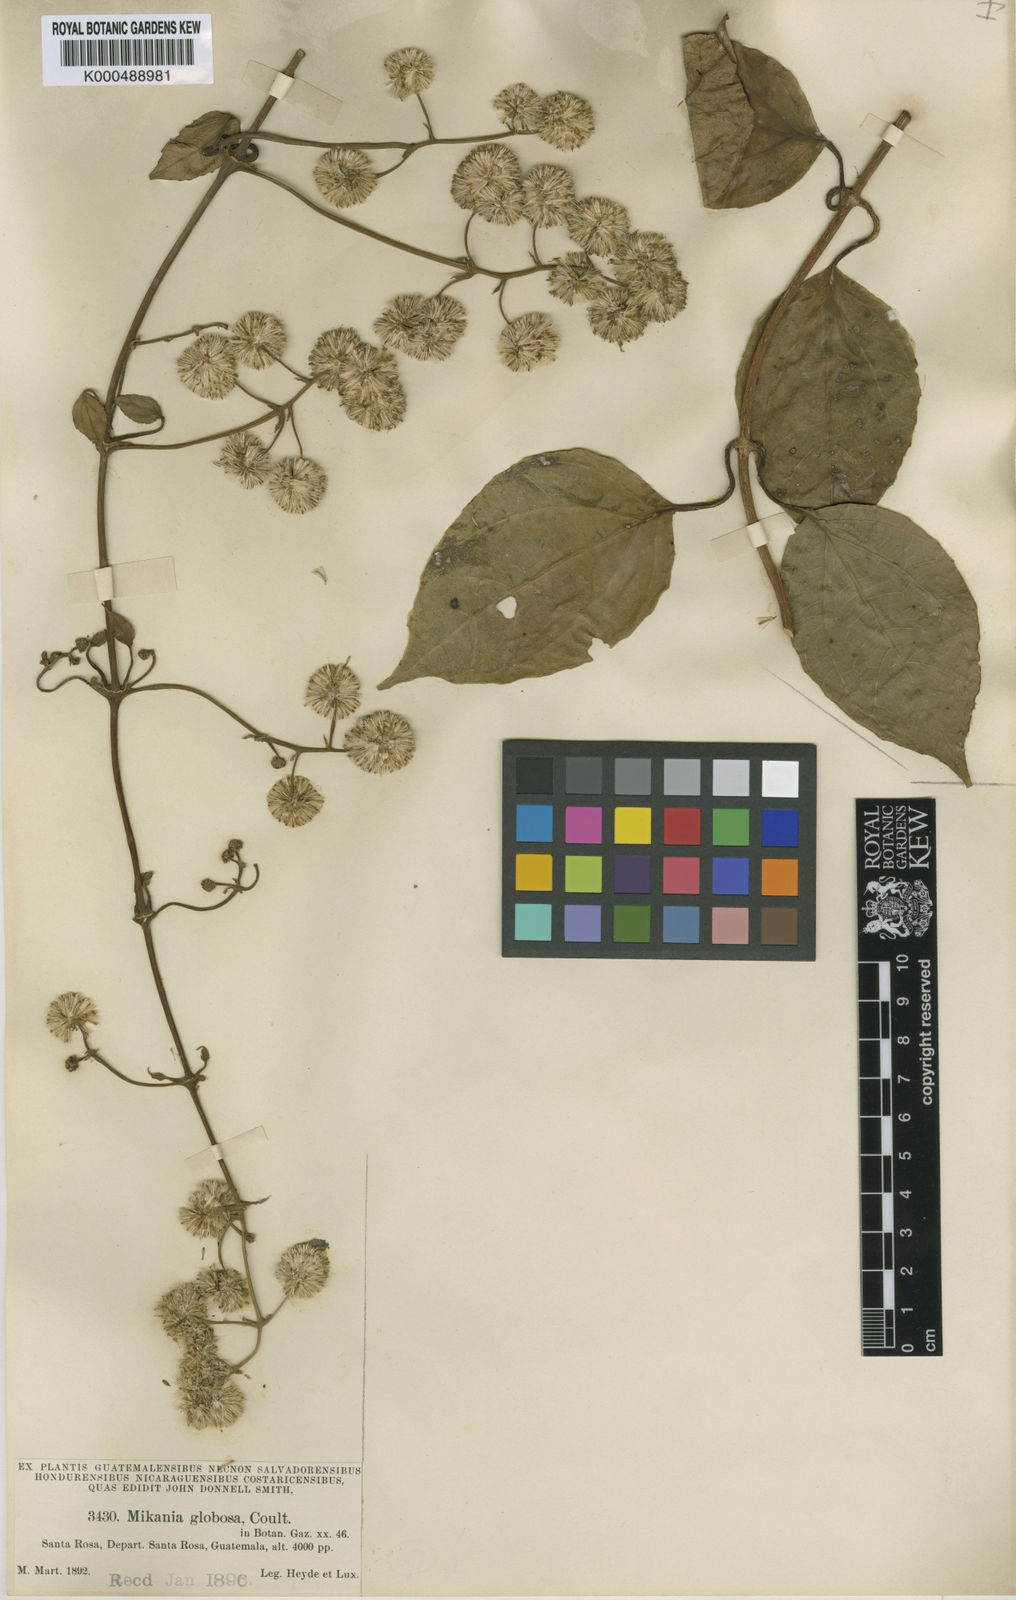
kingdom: Plantae
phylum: Tracheophyta
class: Magnoliopsida
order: Asterales
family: Asteraceae
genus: Mikania
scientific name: Mikania
